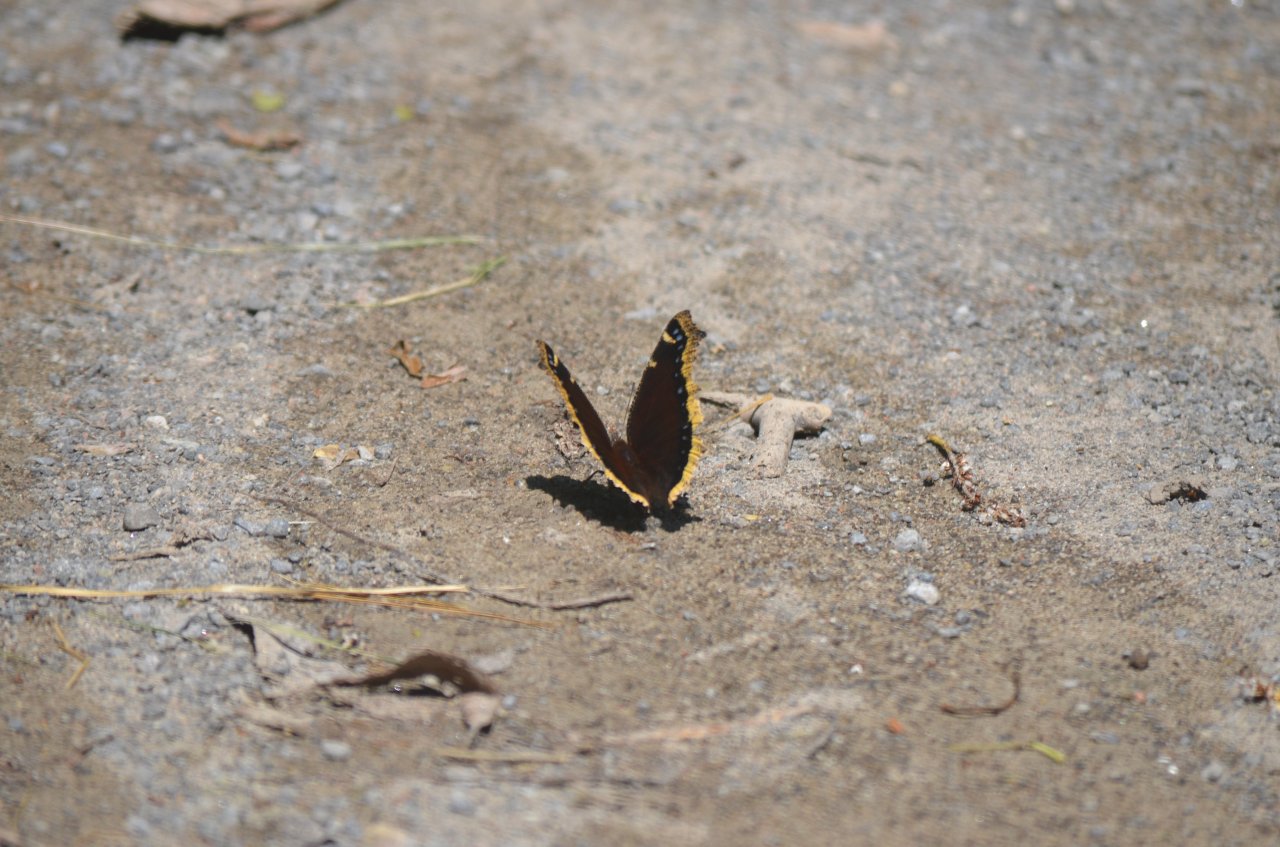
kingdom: Animalia
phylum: Arthropoda
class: Insecta
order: Lepidoptera
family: Nymphalidae
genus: Nymphalis
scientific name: Nymphalis antiopa
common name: Mourning Cloak
